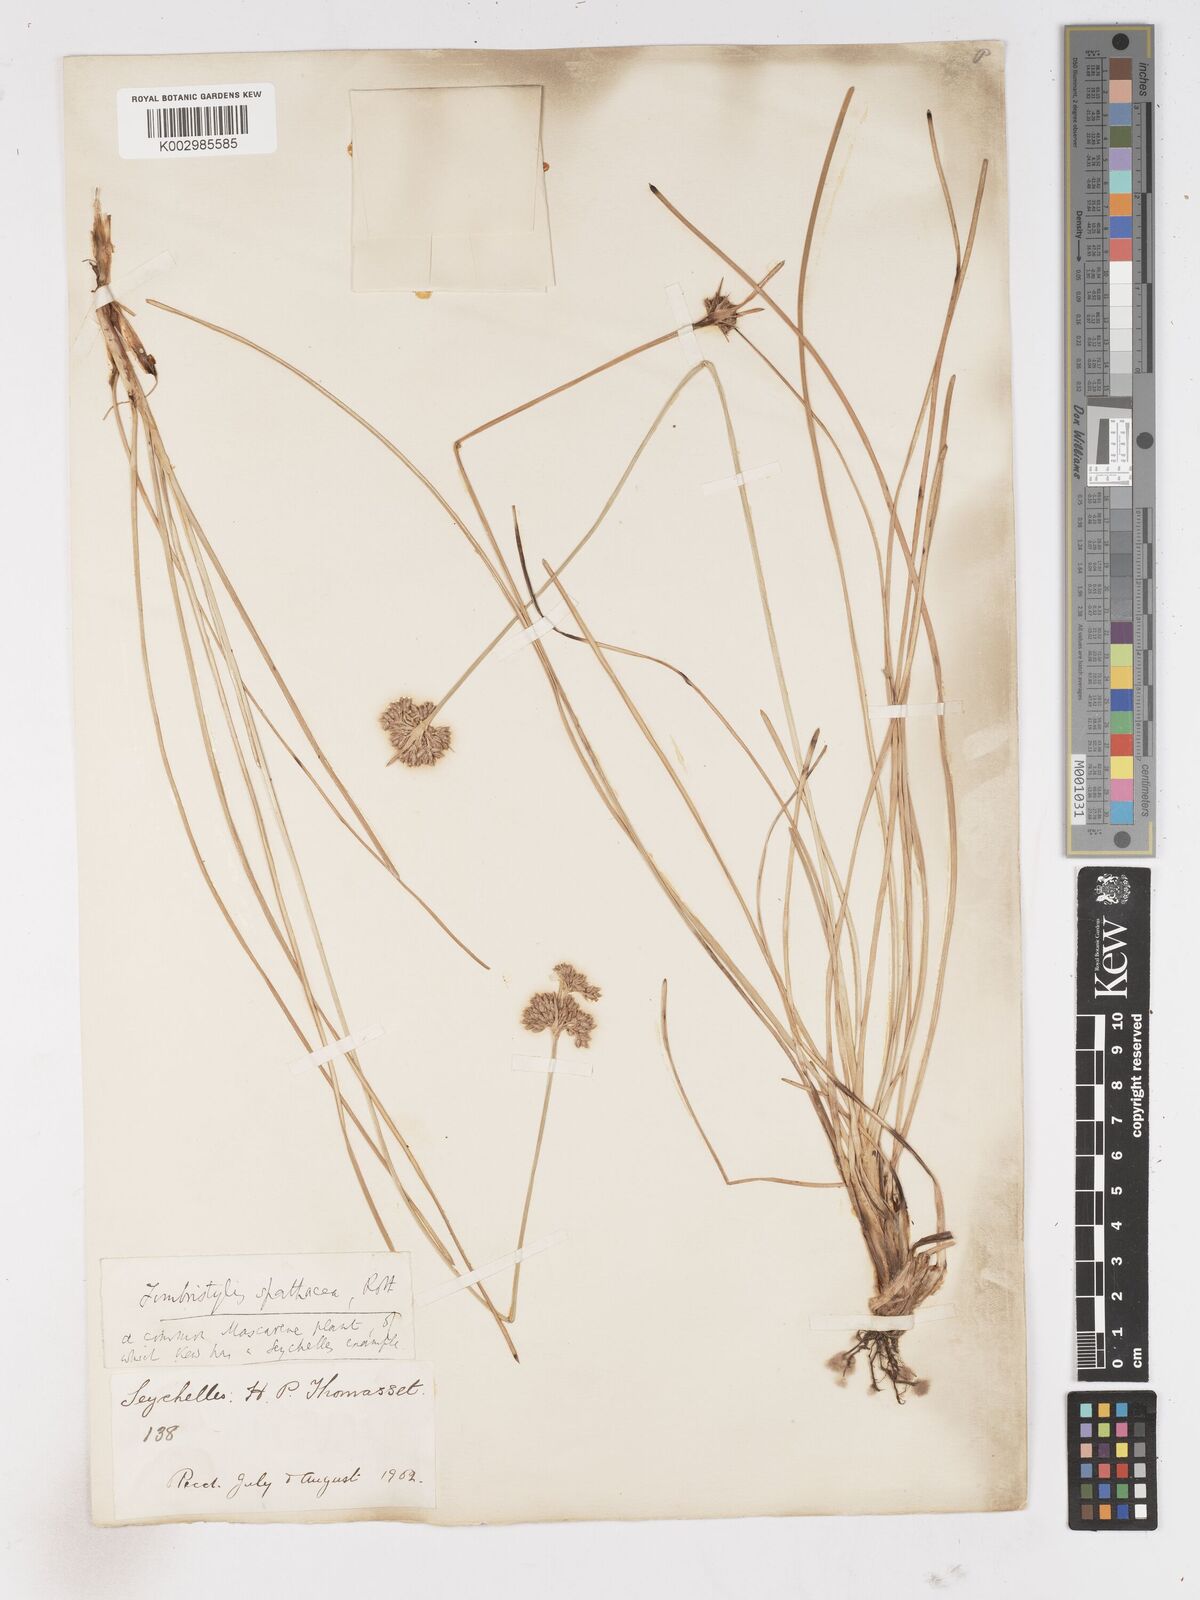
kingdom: Plantae
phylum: Tracheophyta
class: Liliopsida
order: Poales
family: Cyperaceae
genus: Fimbristylis
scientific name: Fimbristylis cymosa
